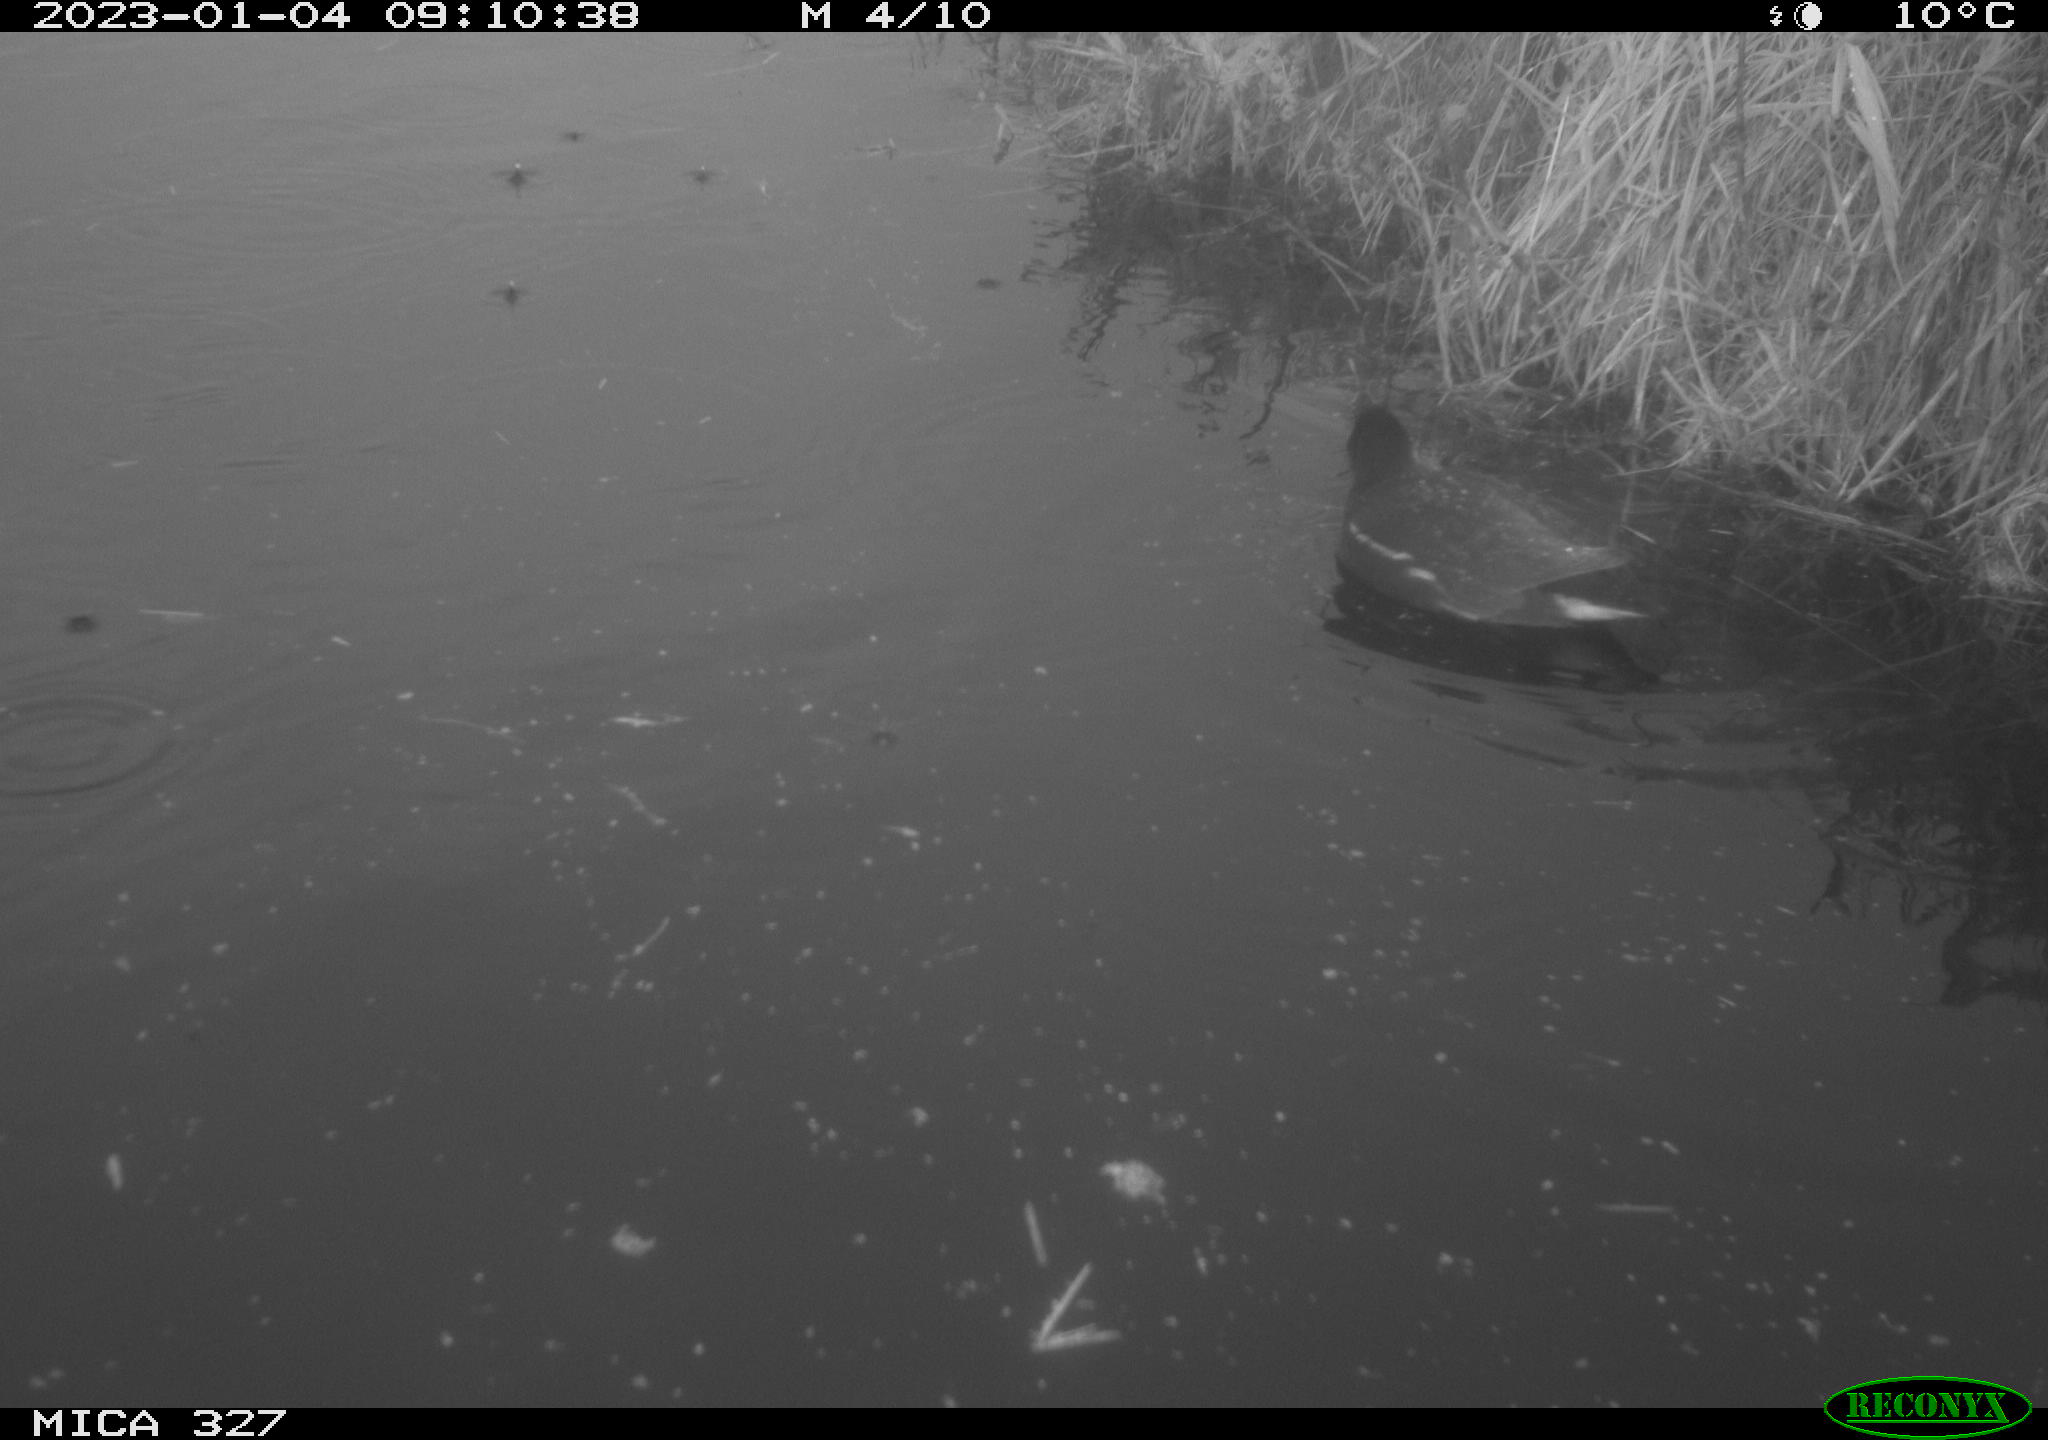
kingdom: Animalia
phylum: Chordata
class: Aves
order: Gruiformes
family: Rallidae
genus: Gallinula
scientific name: Gallinula chloropus
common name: Common moorhen
